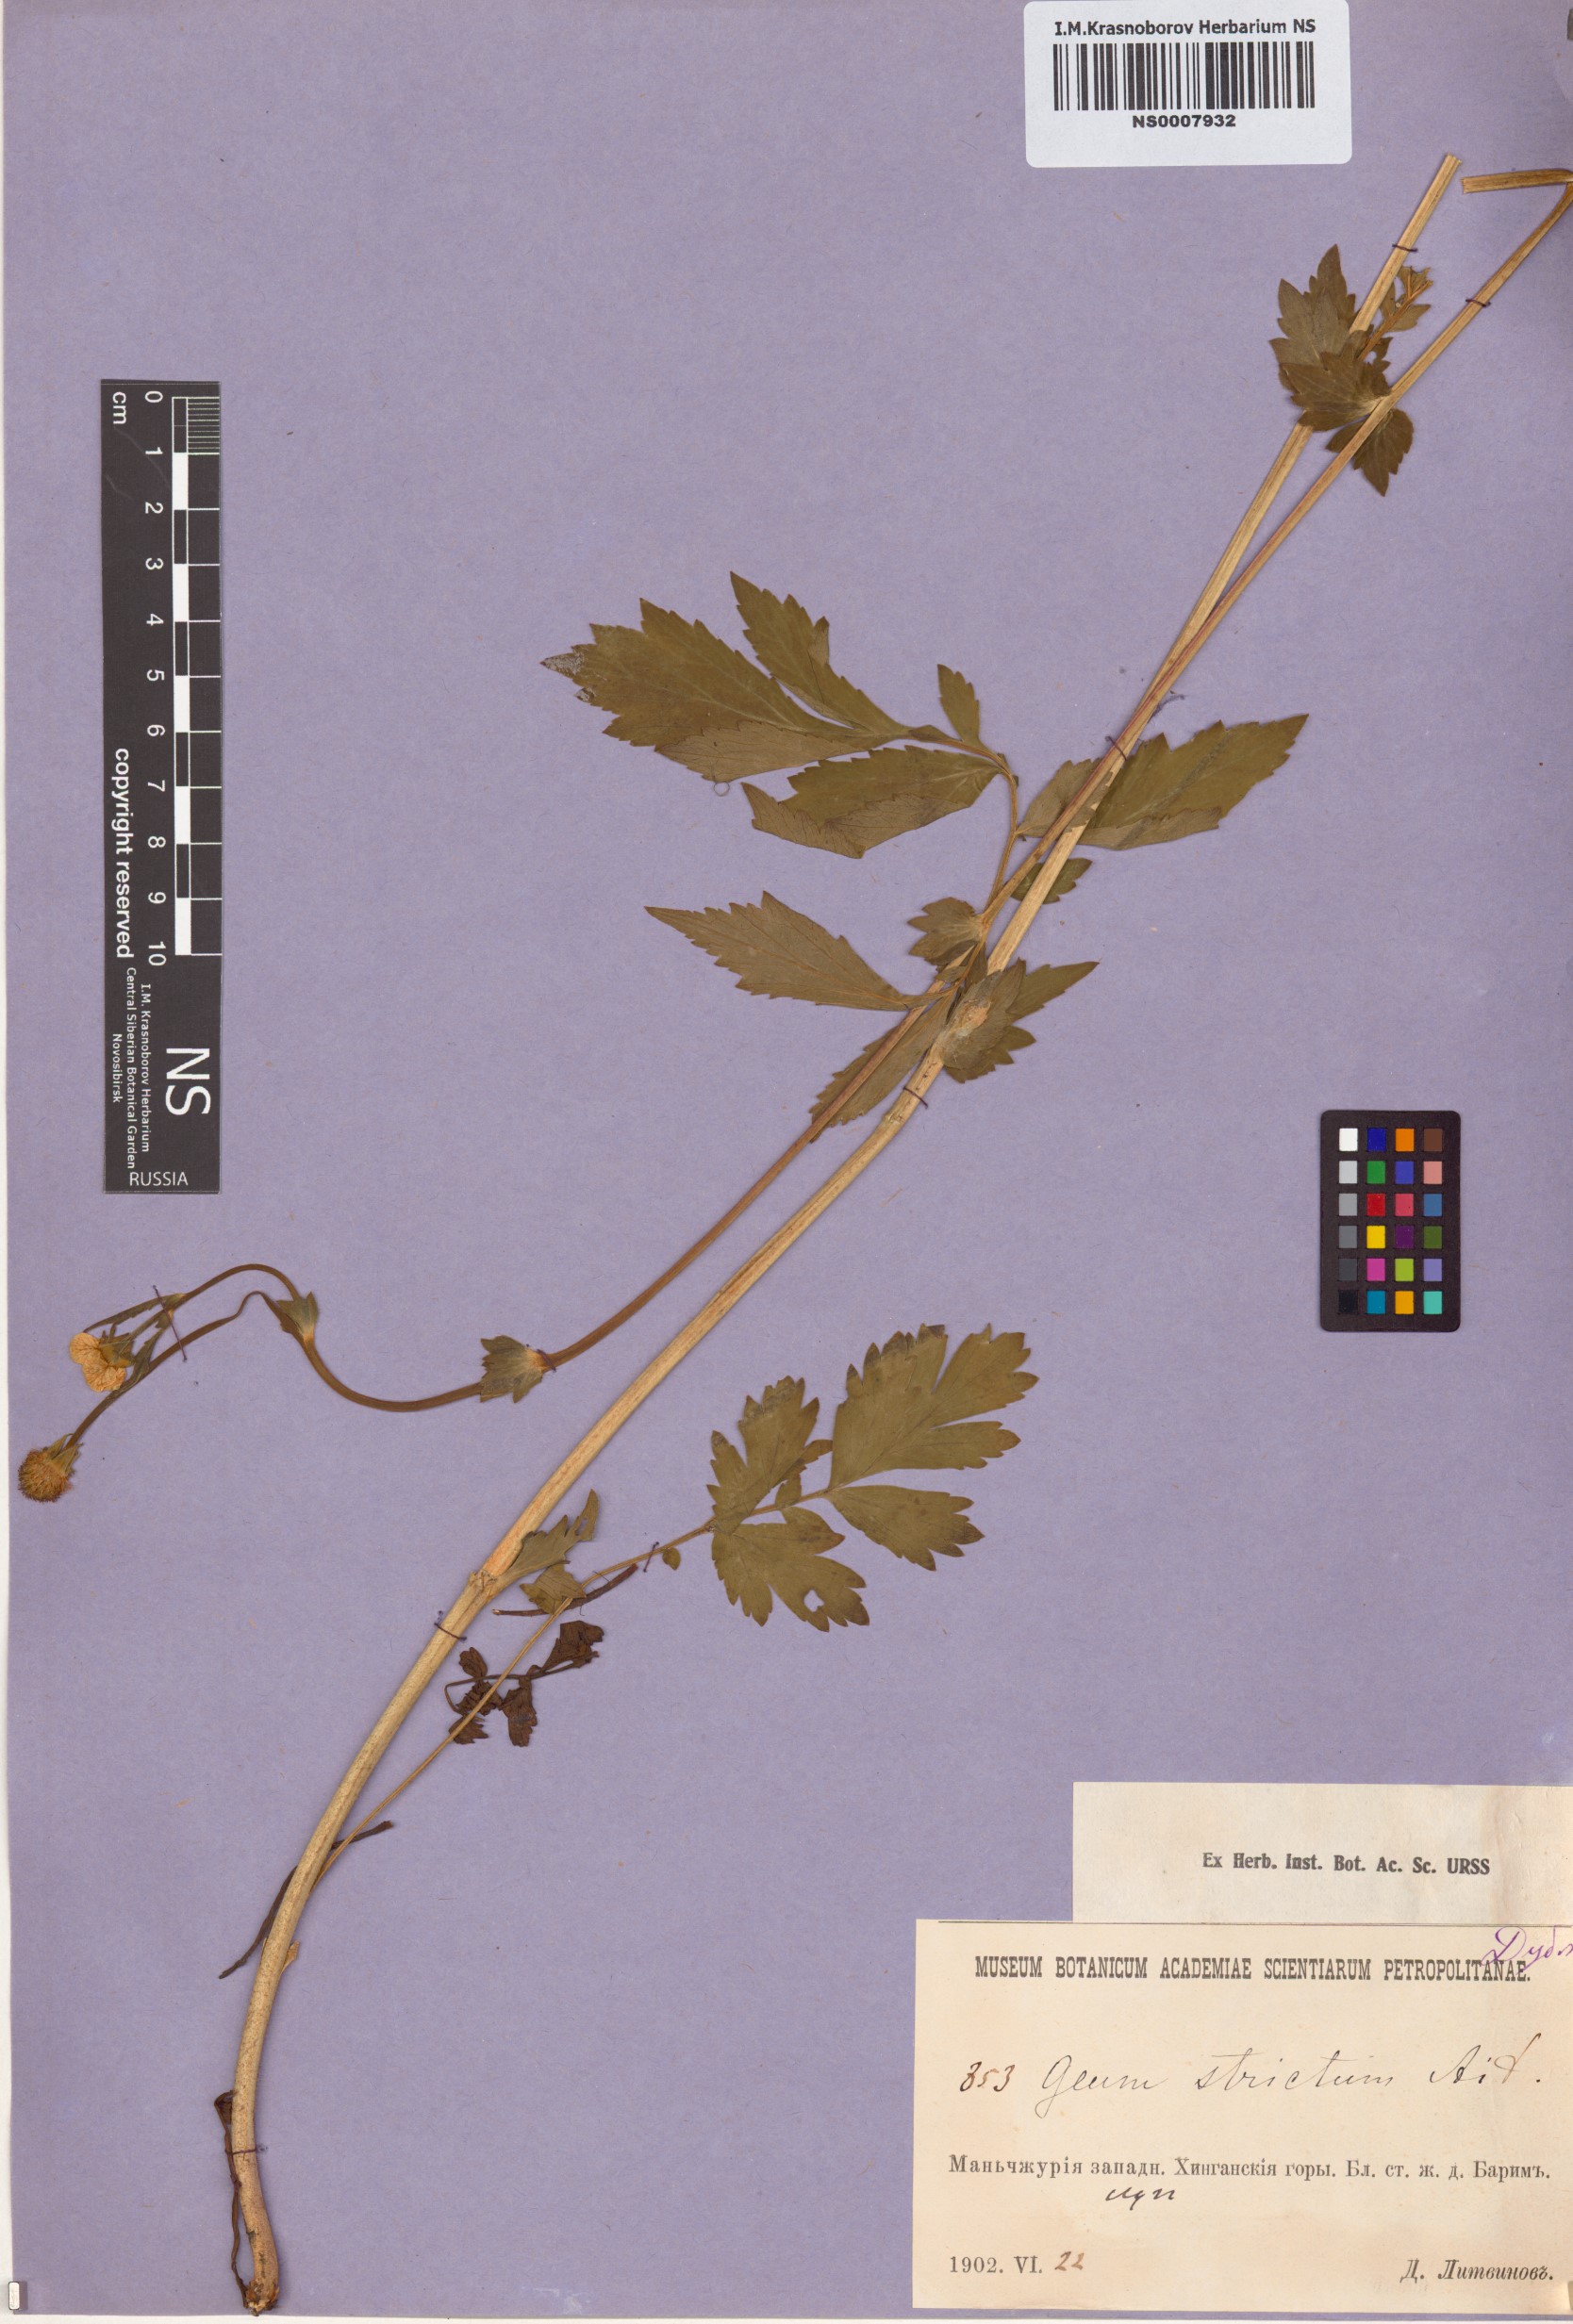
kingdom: Plantae
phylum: Tracheophyta
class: Magnoliopsida
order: Rosales
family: Rosaceae
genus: Geum
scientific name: Geum aleppicum
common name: Yellow avens
